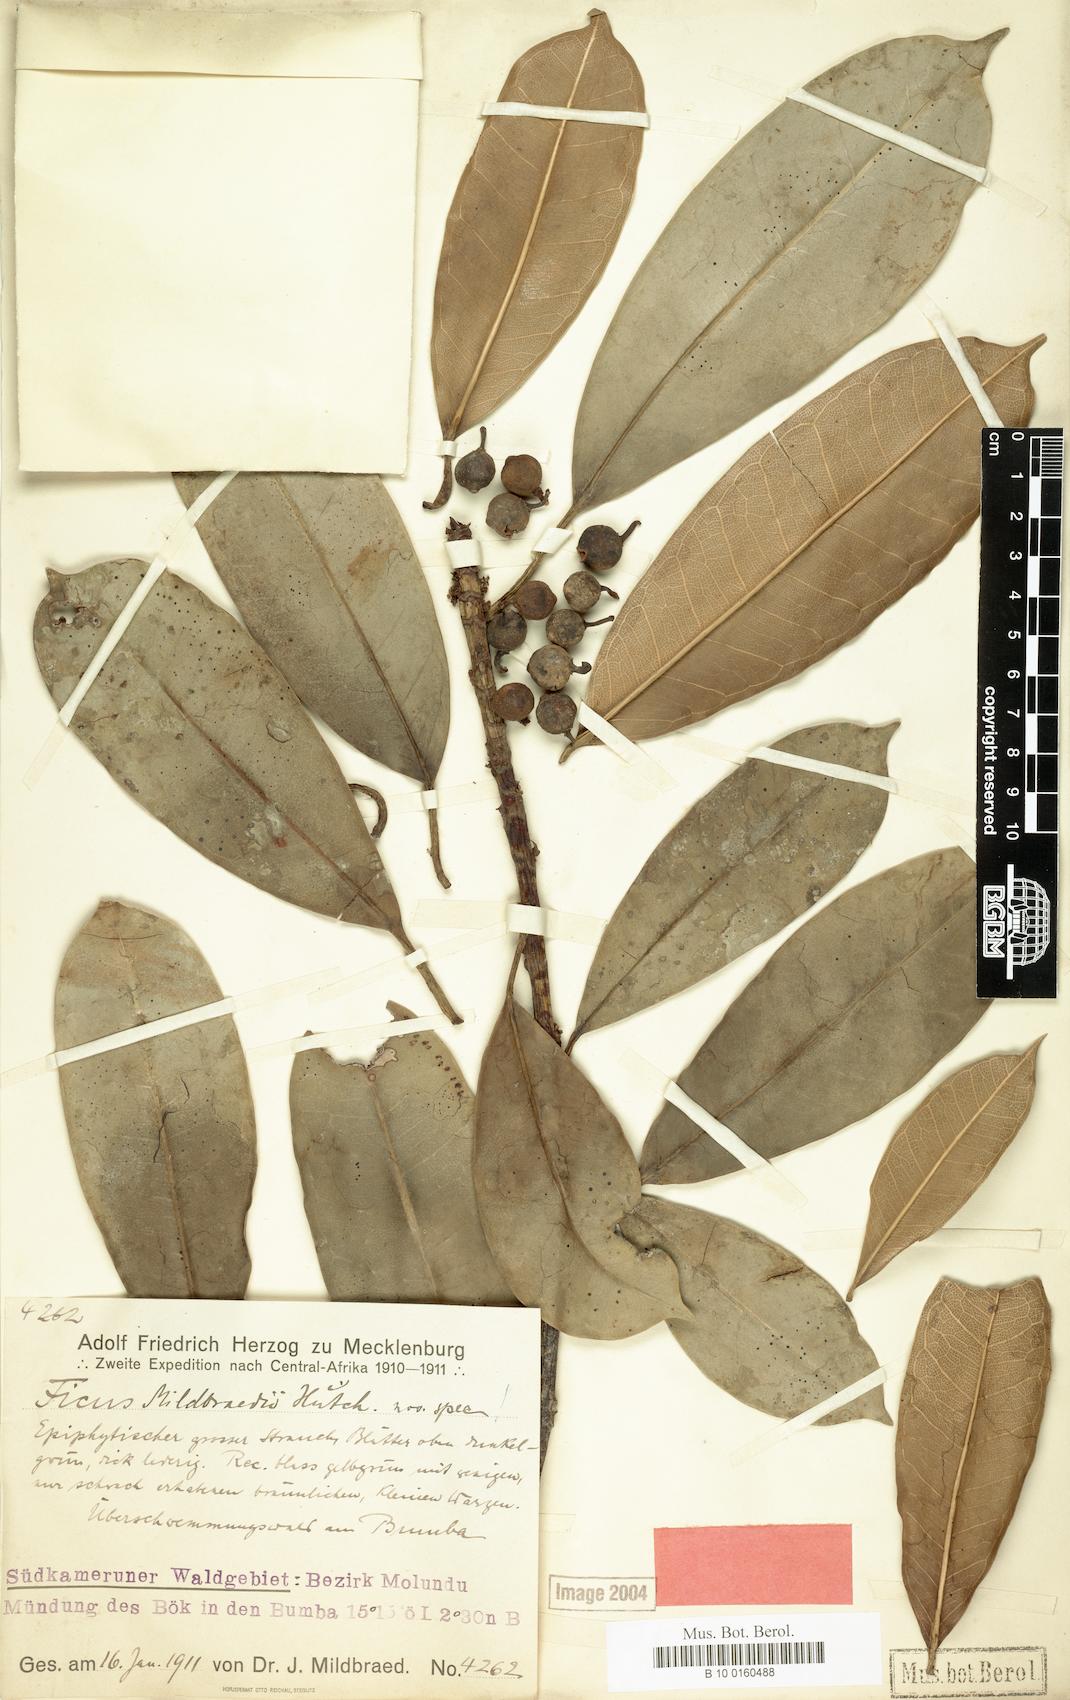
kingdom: Plantae
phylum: Tracheophyta
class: Magnoliopsida
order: Rosales
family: Moraceae
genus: Ficus
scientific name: Ficus barteri
